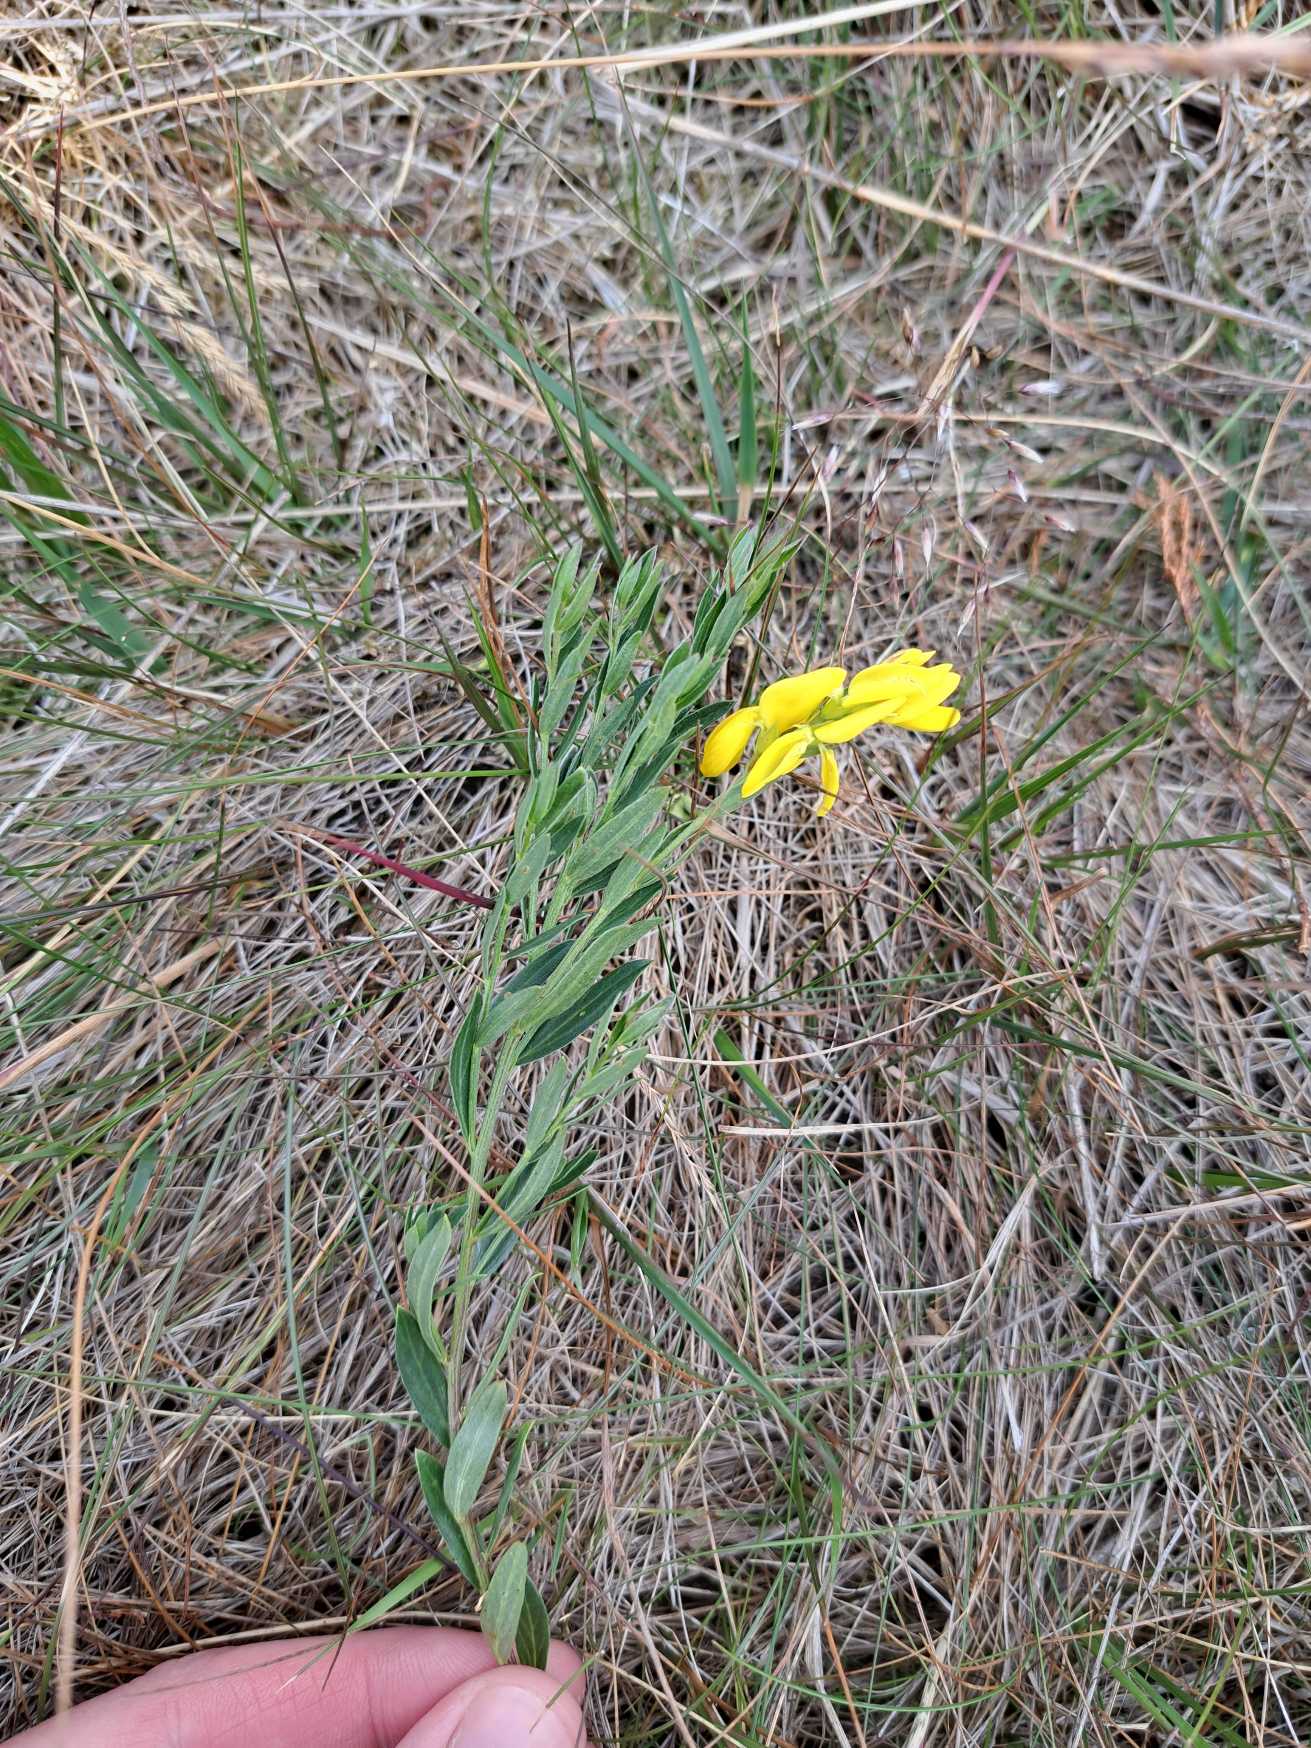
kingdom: Plantae
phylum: Tracheophyta
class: Magnoliopsida
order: Fabales
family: Fabaceae
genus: Genista
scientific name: Genista tinctoria
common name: Farve-visse
